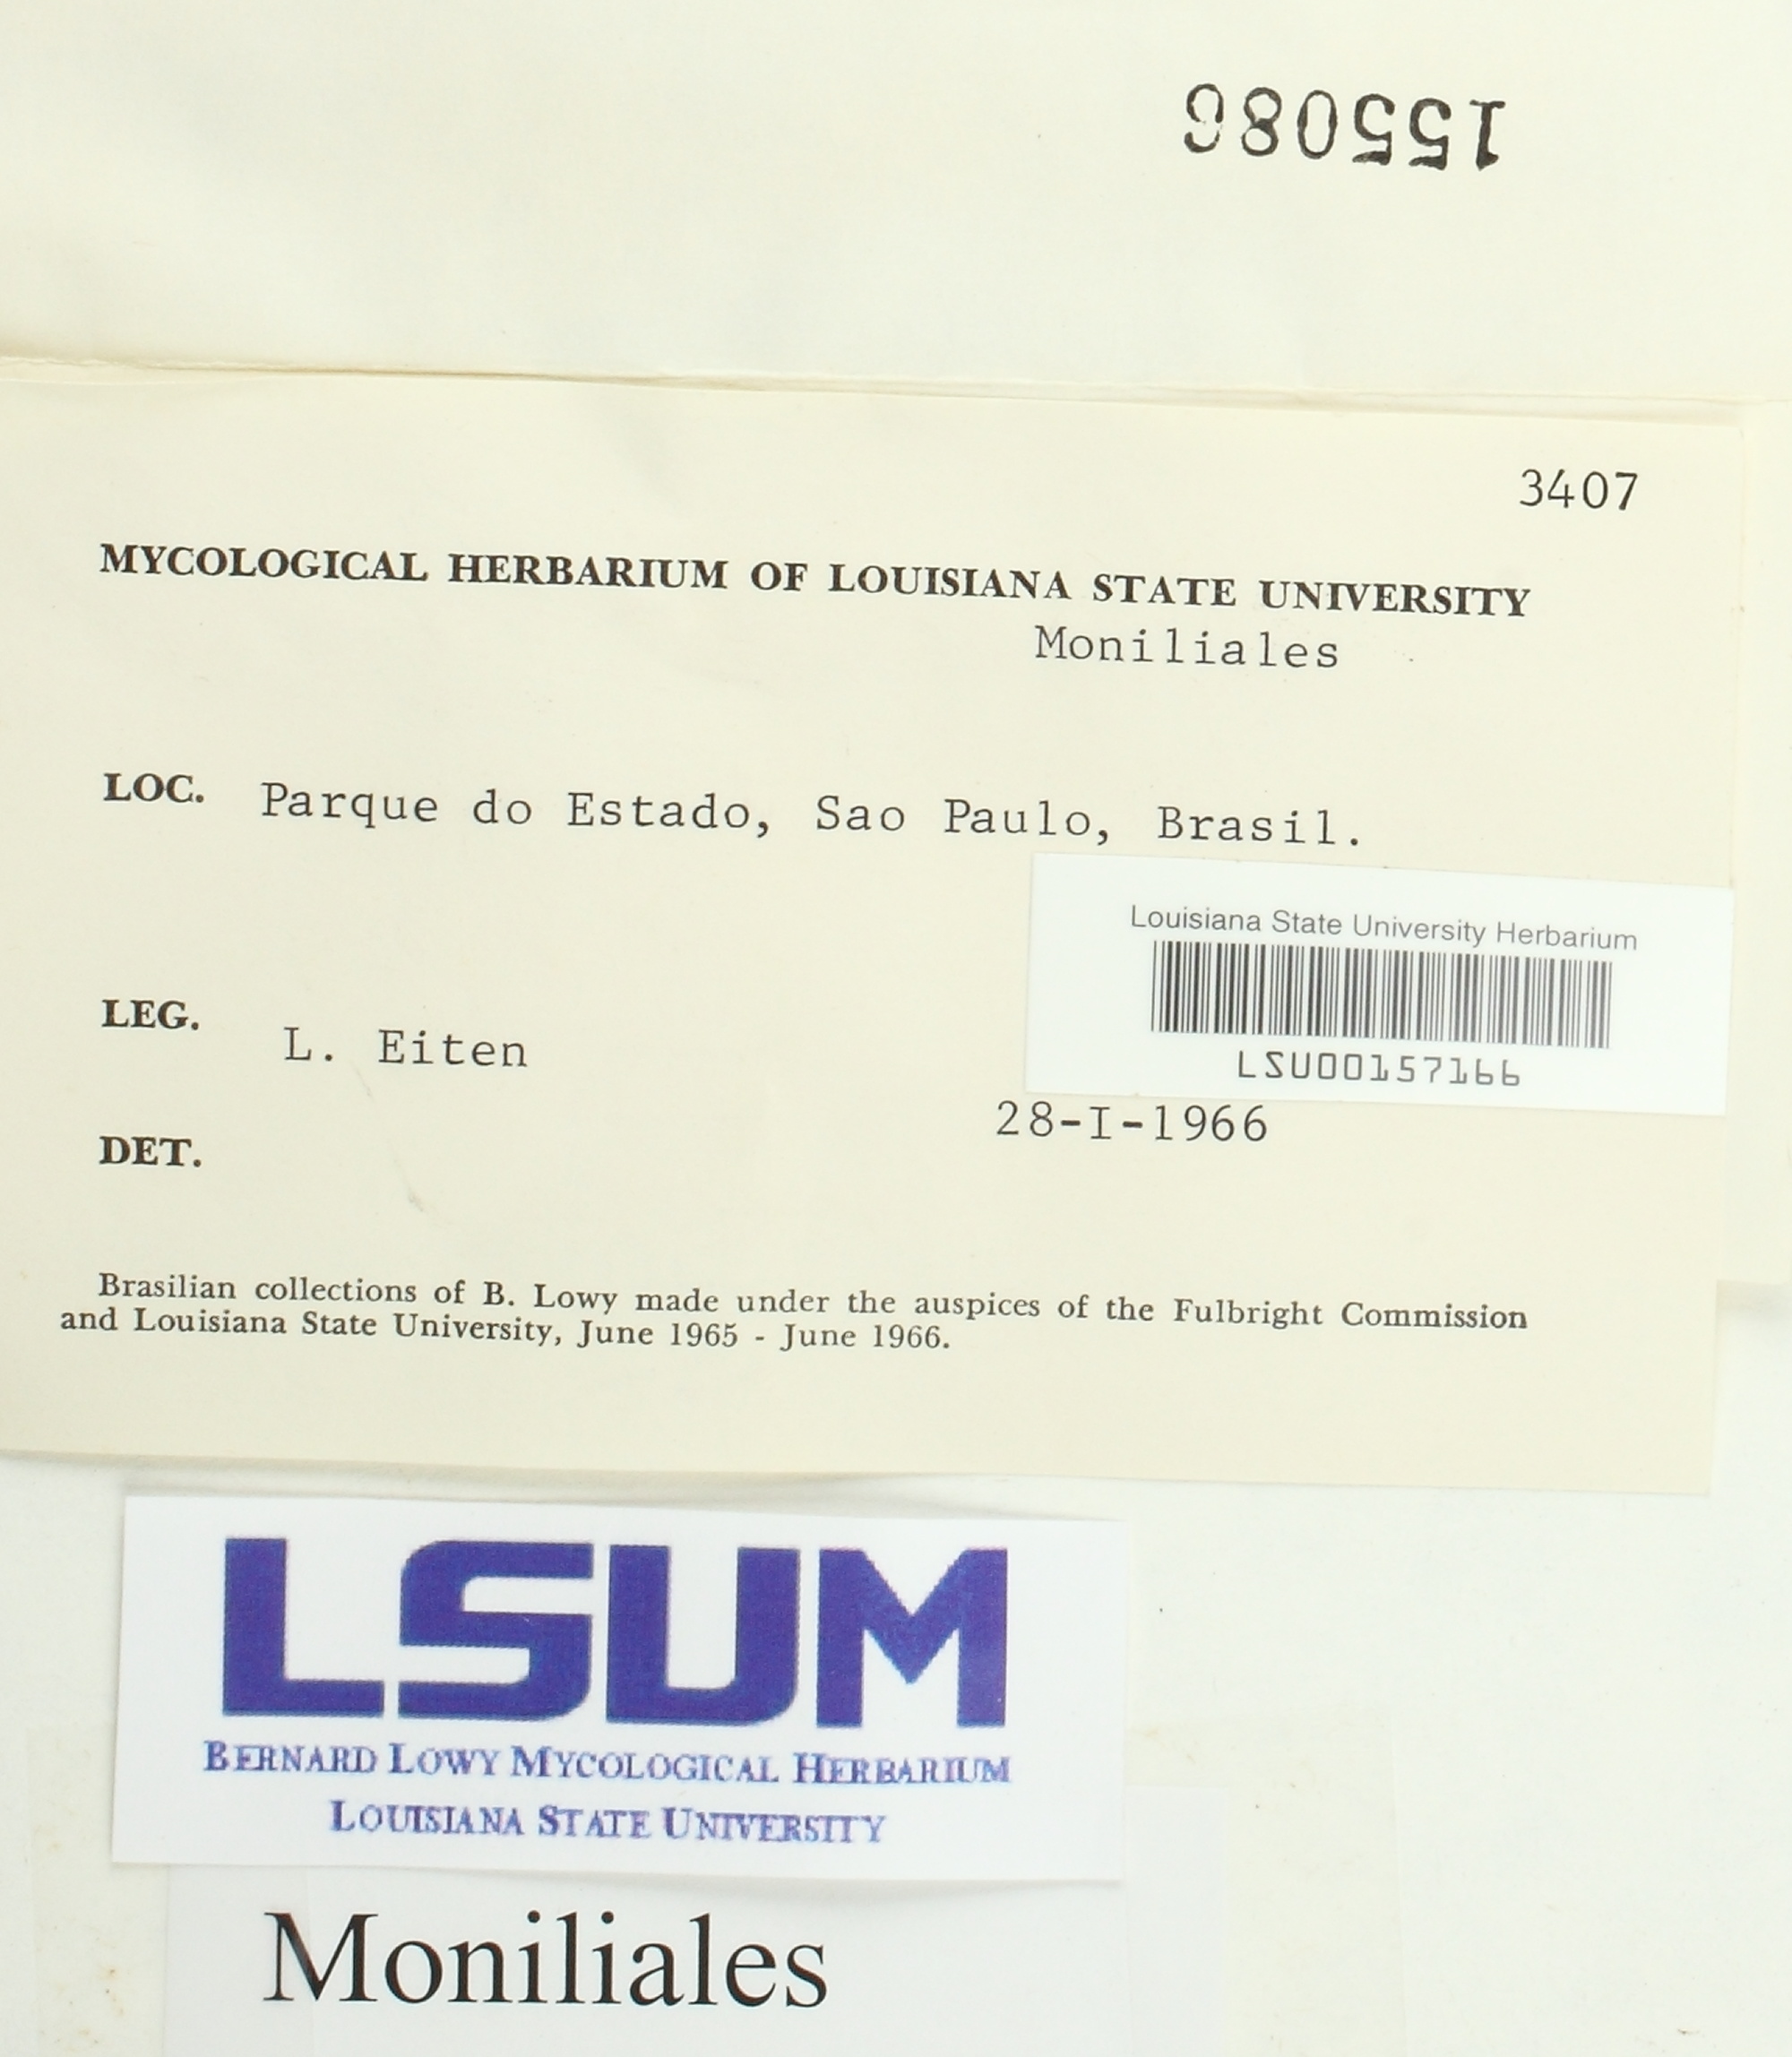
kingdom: Fungi
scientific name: Fungi
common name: Fungi
